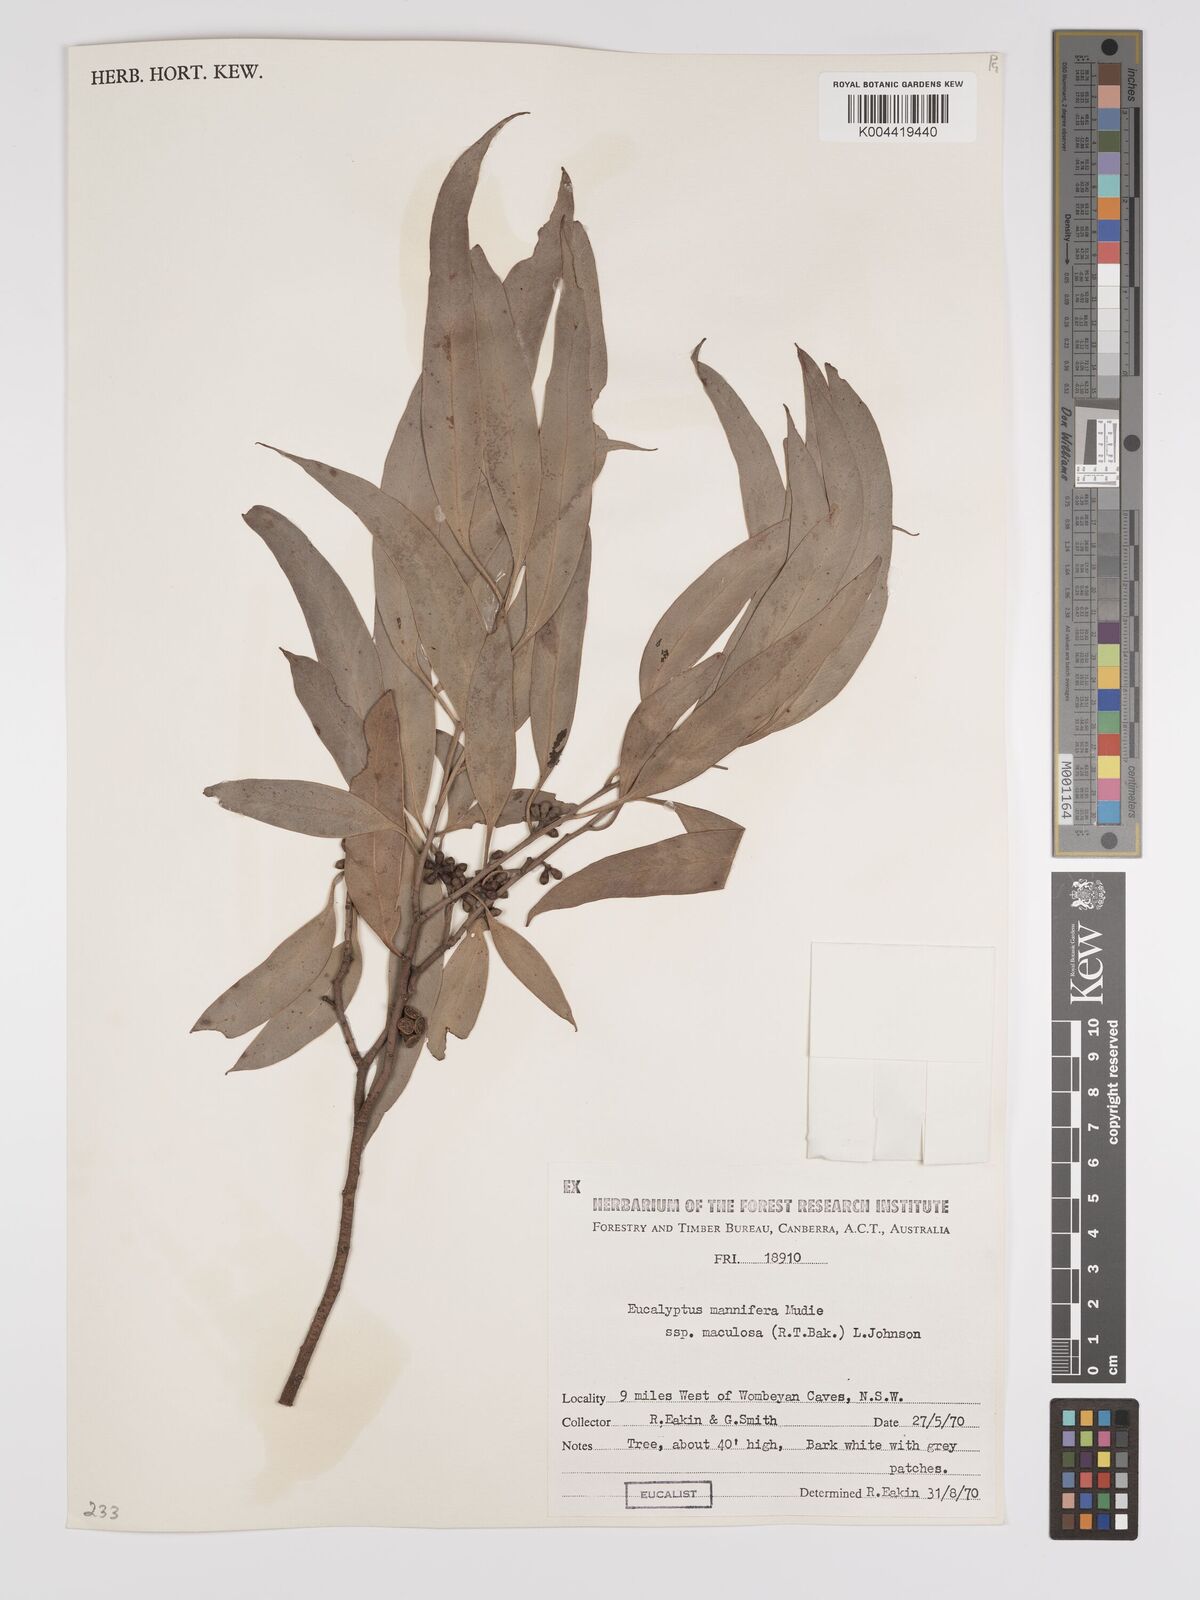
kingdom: Plantae
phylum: Tracheophyta
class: Magnoliopsida
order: Myrtales
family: Myrtaceae
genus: Eucalyptus
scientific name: Eucalyptus mannifera
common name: Manna gum
